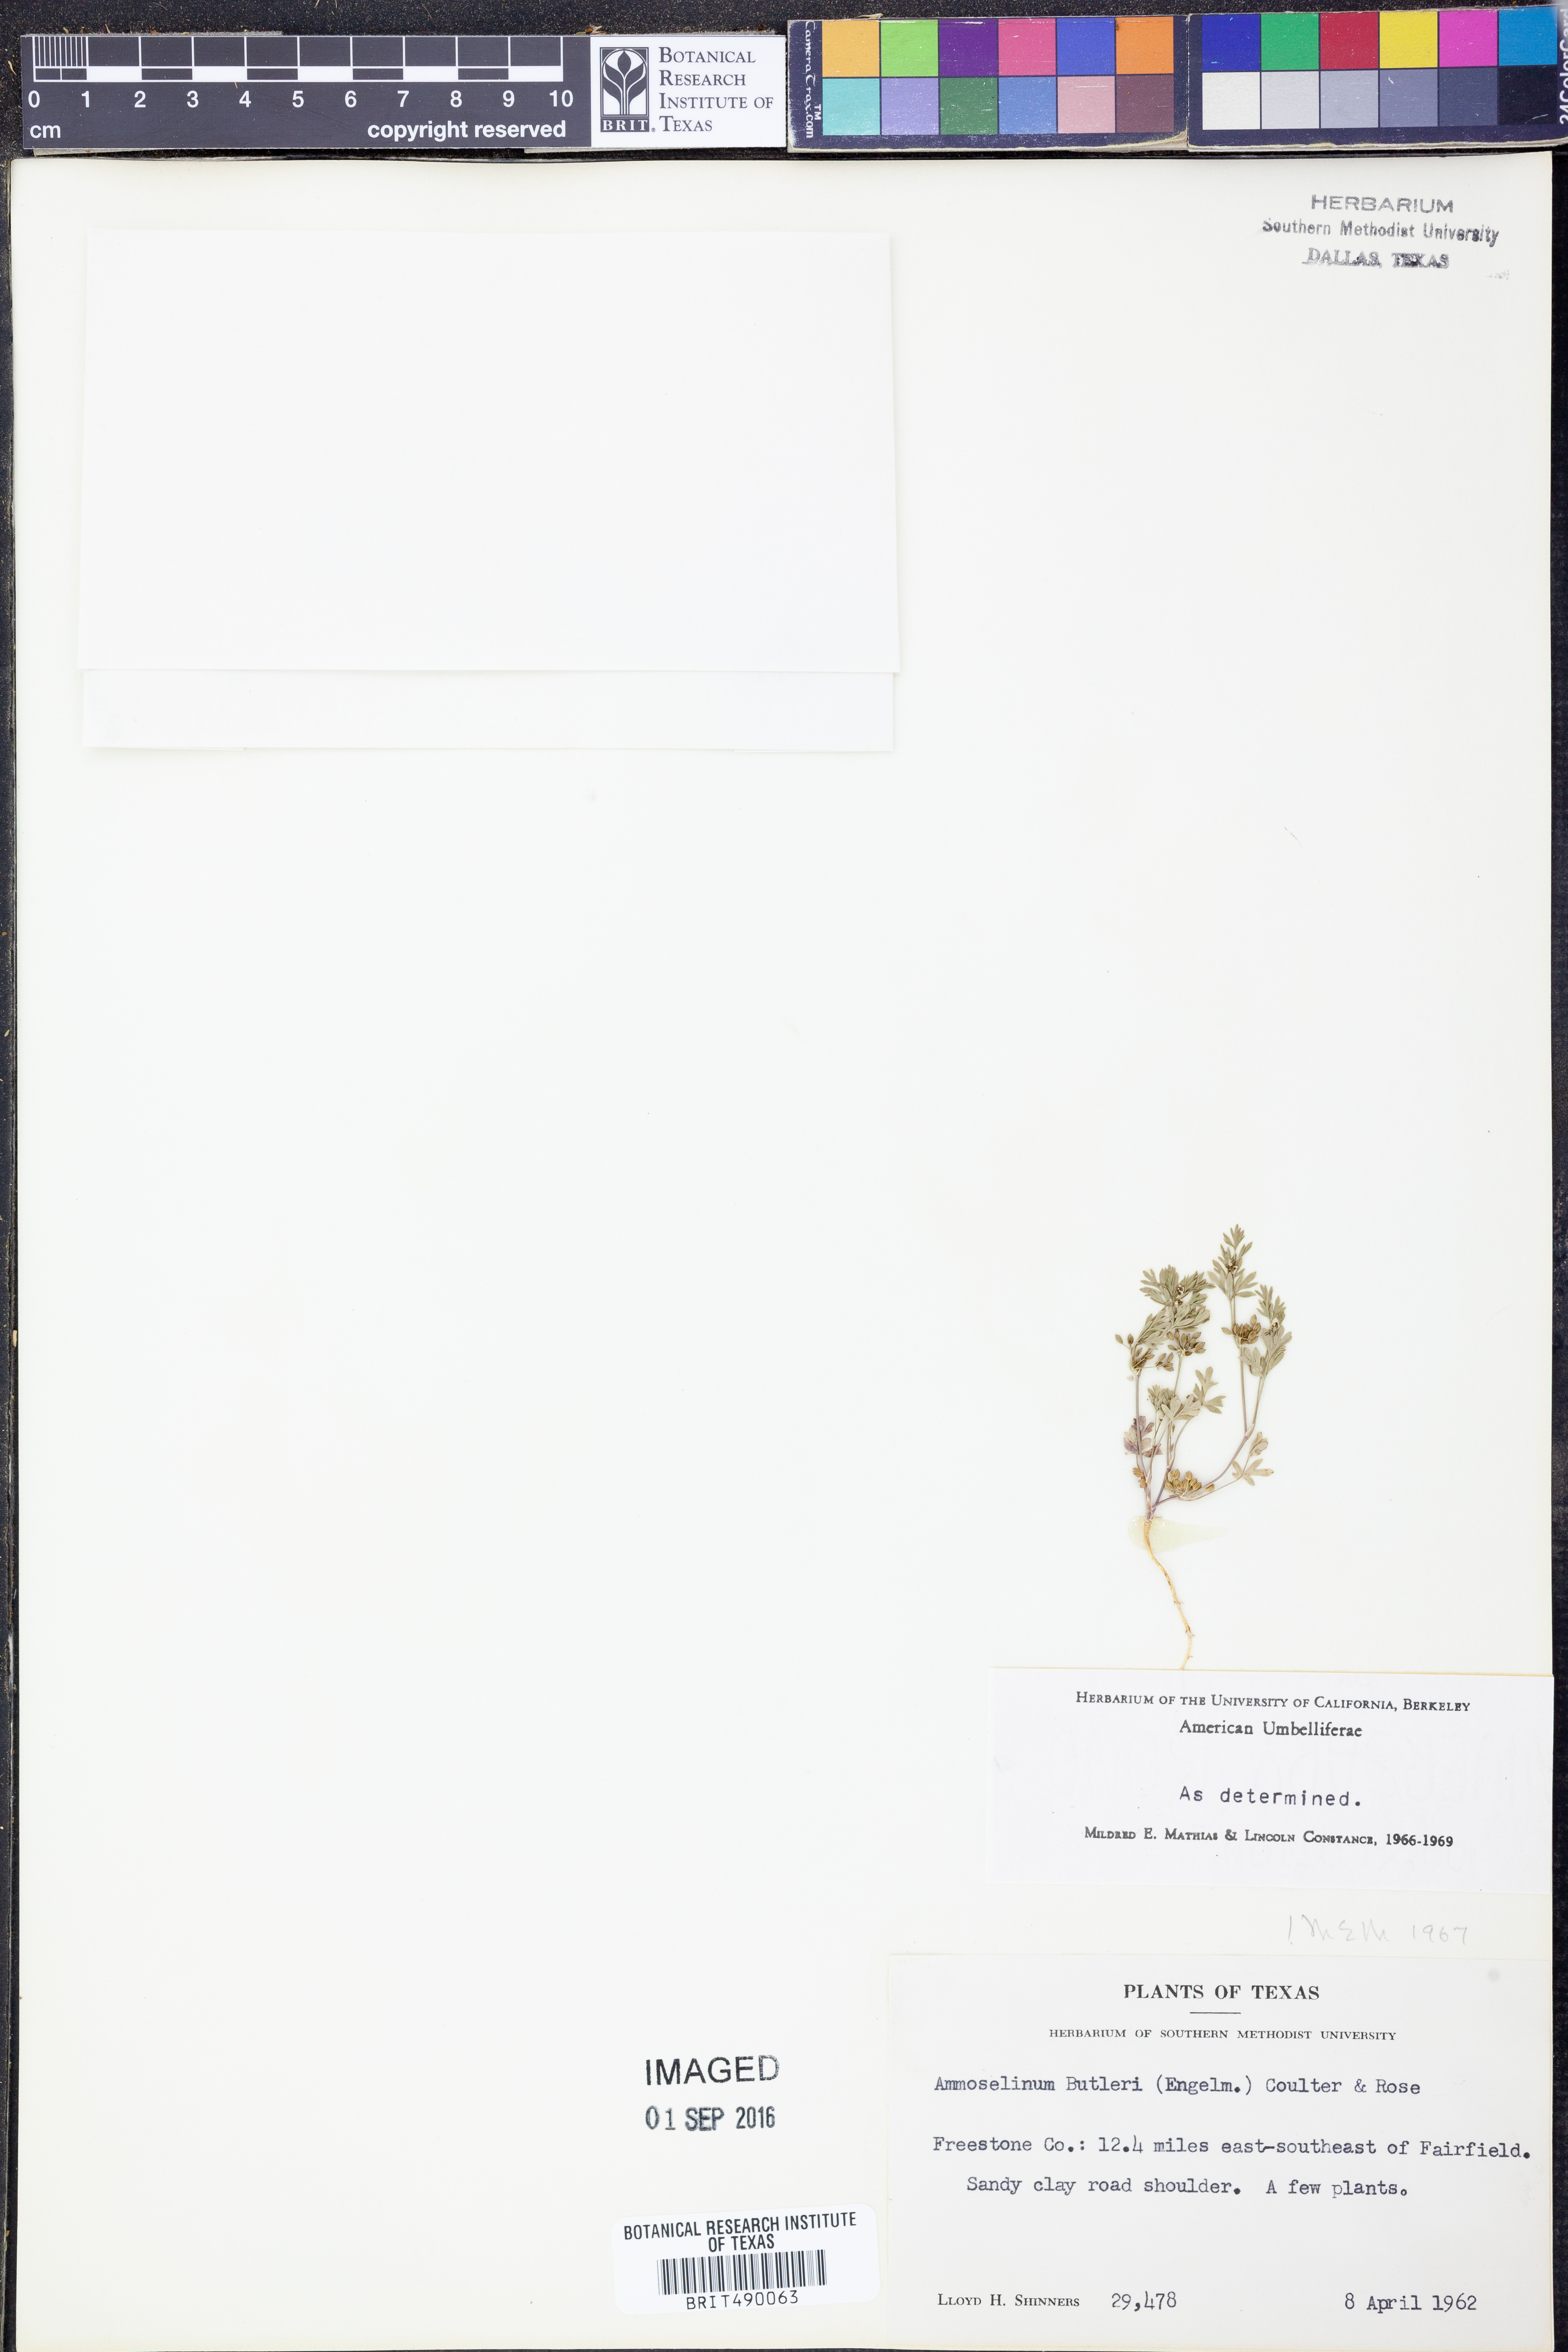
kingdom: Plantae
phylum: Tracheophyta
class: Magnoliopsida
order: Apiales
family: Apiaceae
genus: Ammoselinum
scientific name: Ammoselinum butleri
